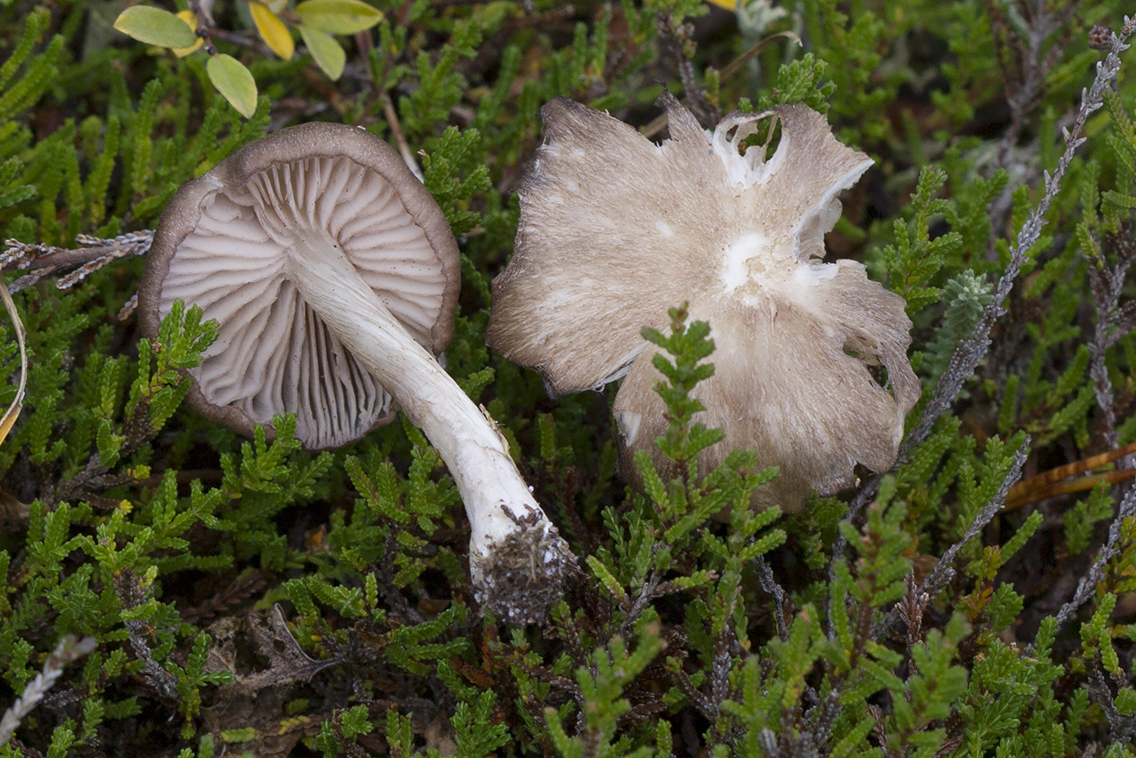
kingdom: Fungi
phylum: Basidiomycota
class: Agaricomycetes
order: Agaricales
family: Entolomataceae
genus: Entoloma
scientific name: Entoloma elodes
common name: mørkægget rødblad
